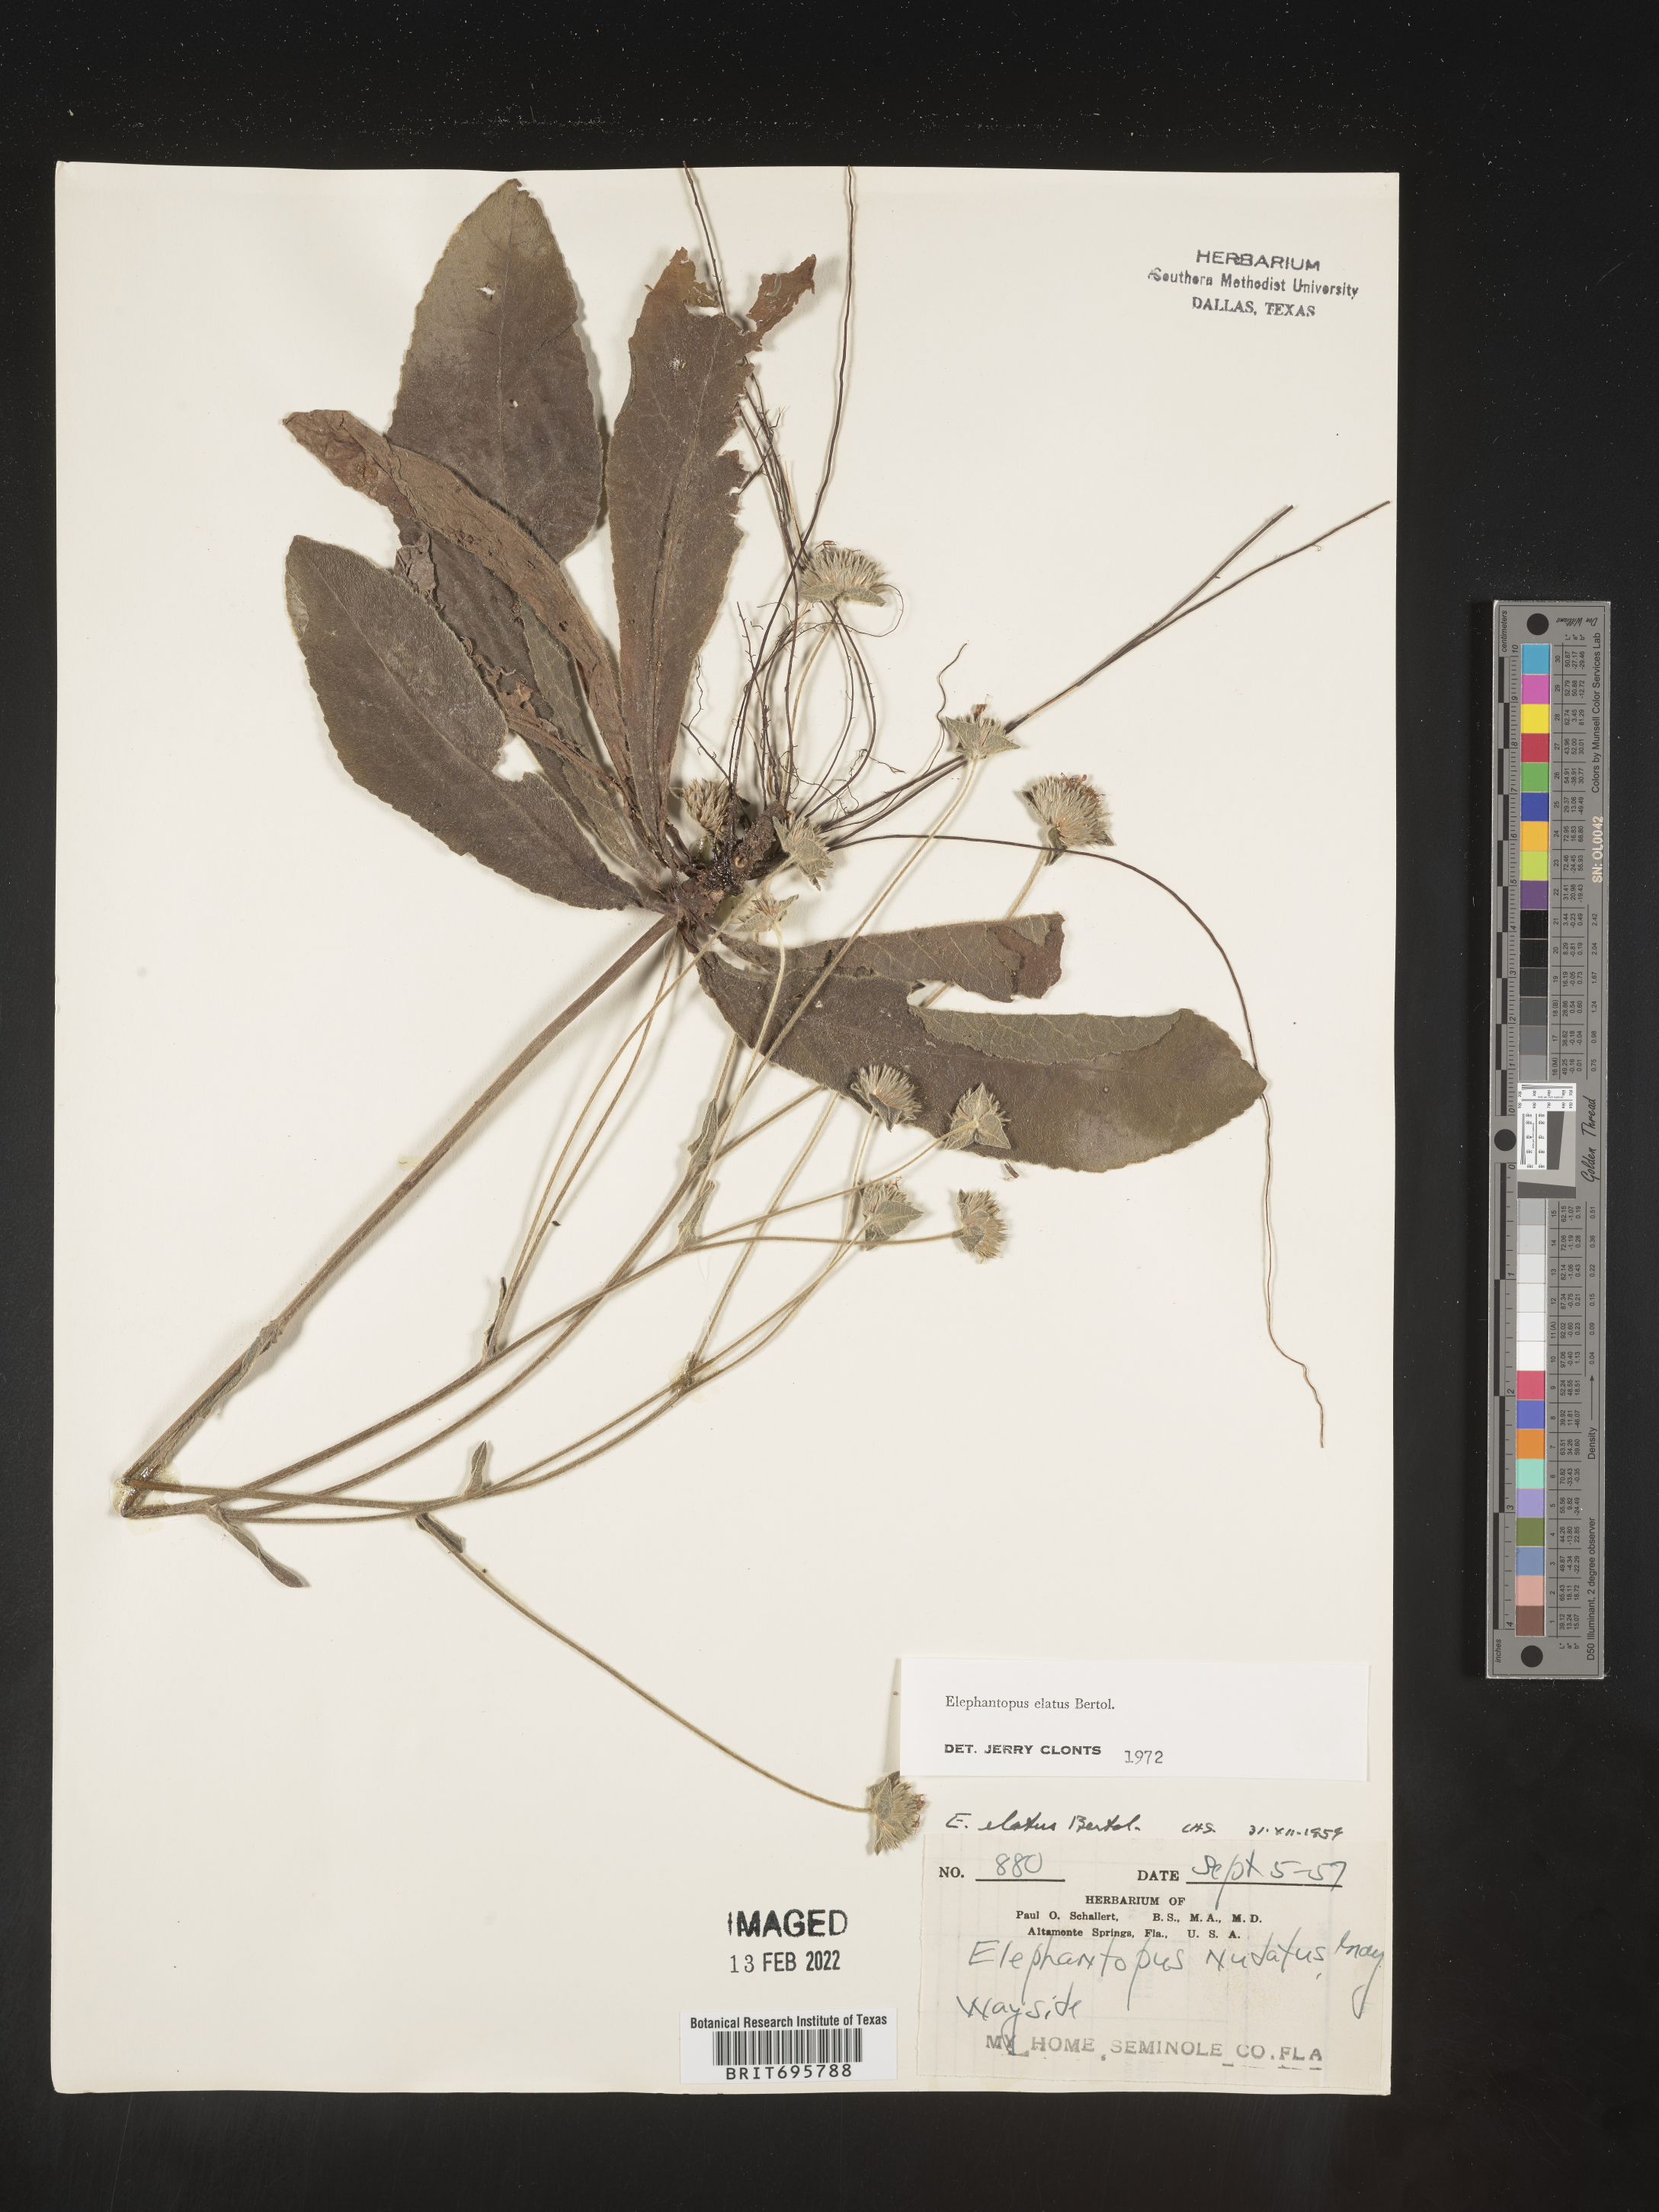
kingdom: Plantae
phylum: Tracheophyta
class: Magnoliopsida
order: Asterales
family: Asteraceae
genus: Elephantopus
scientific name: Elephantopus elatus
